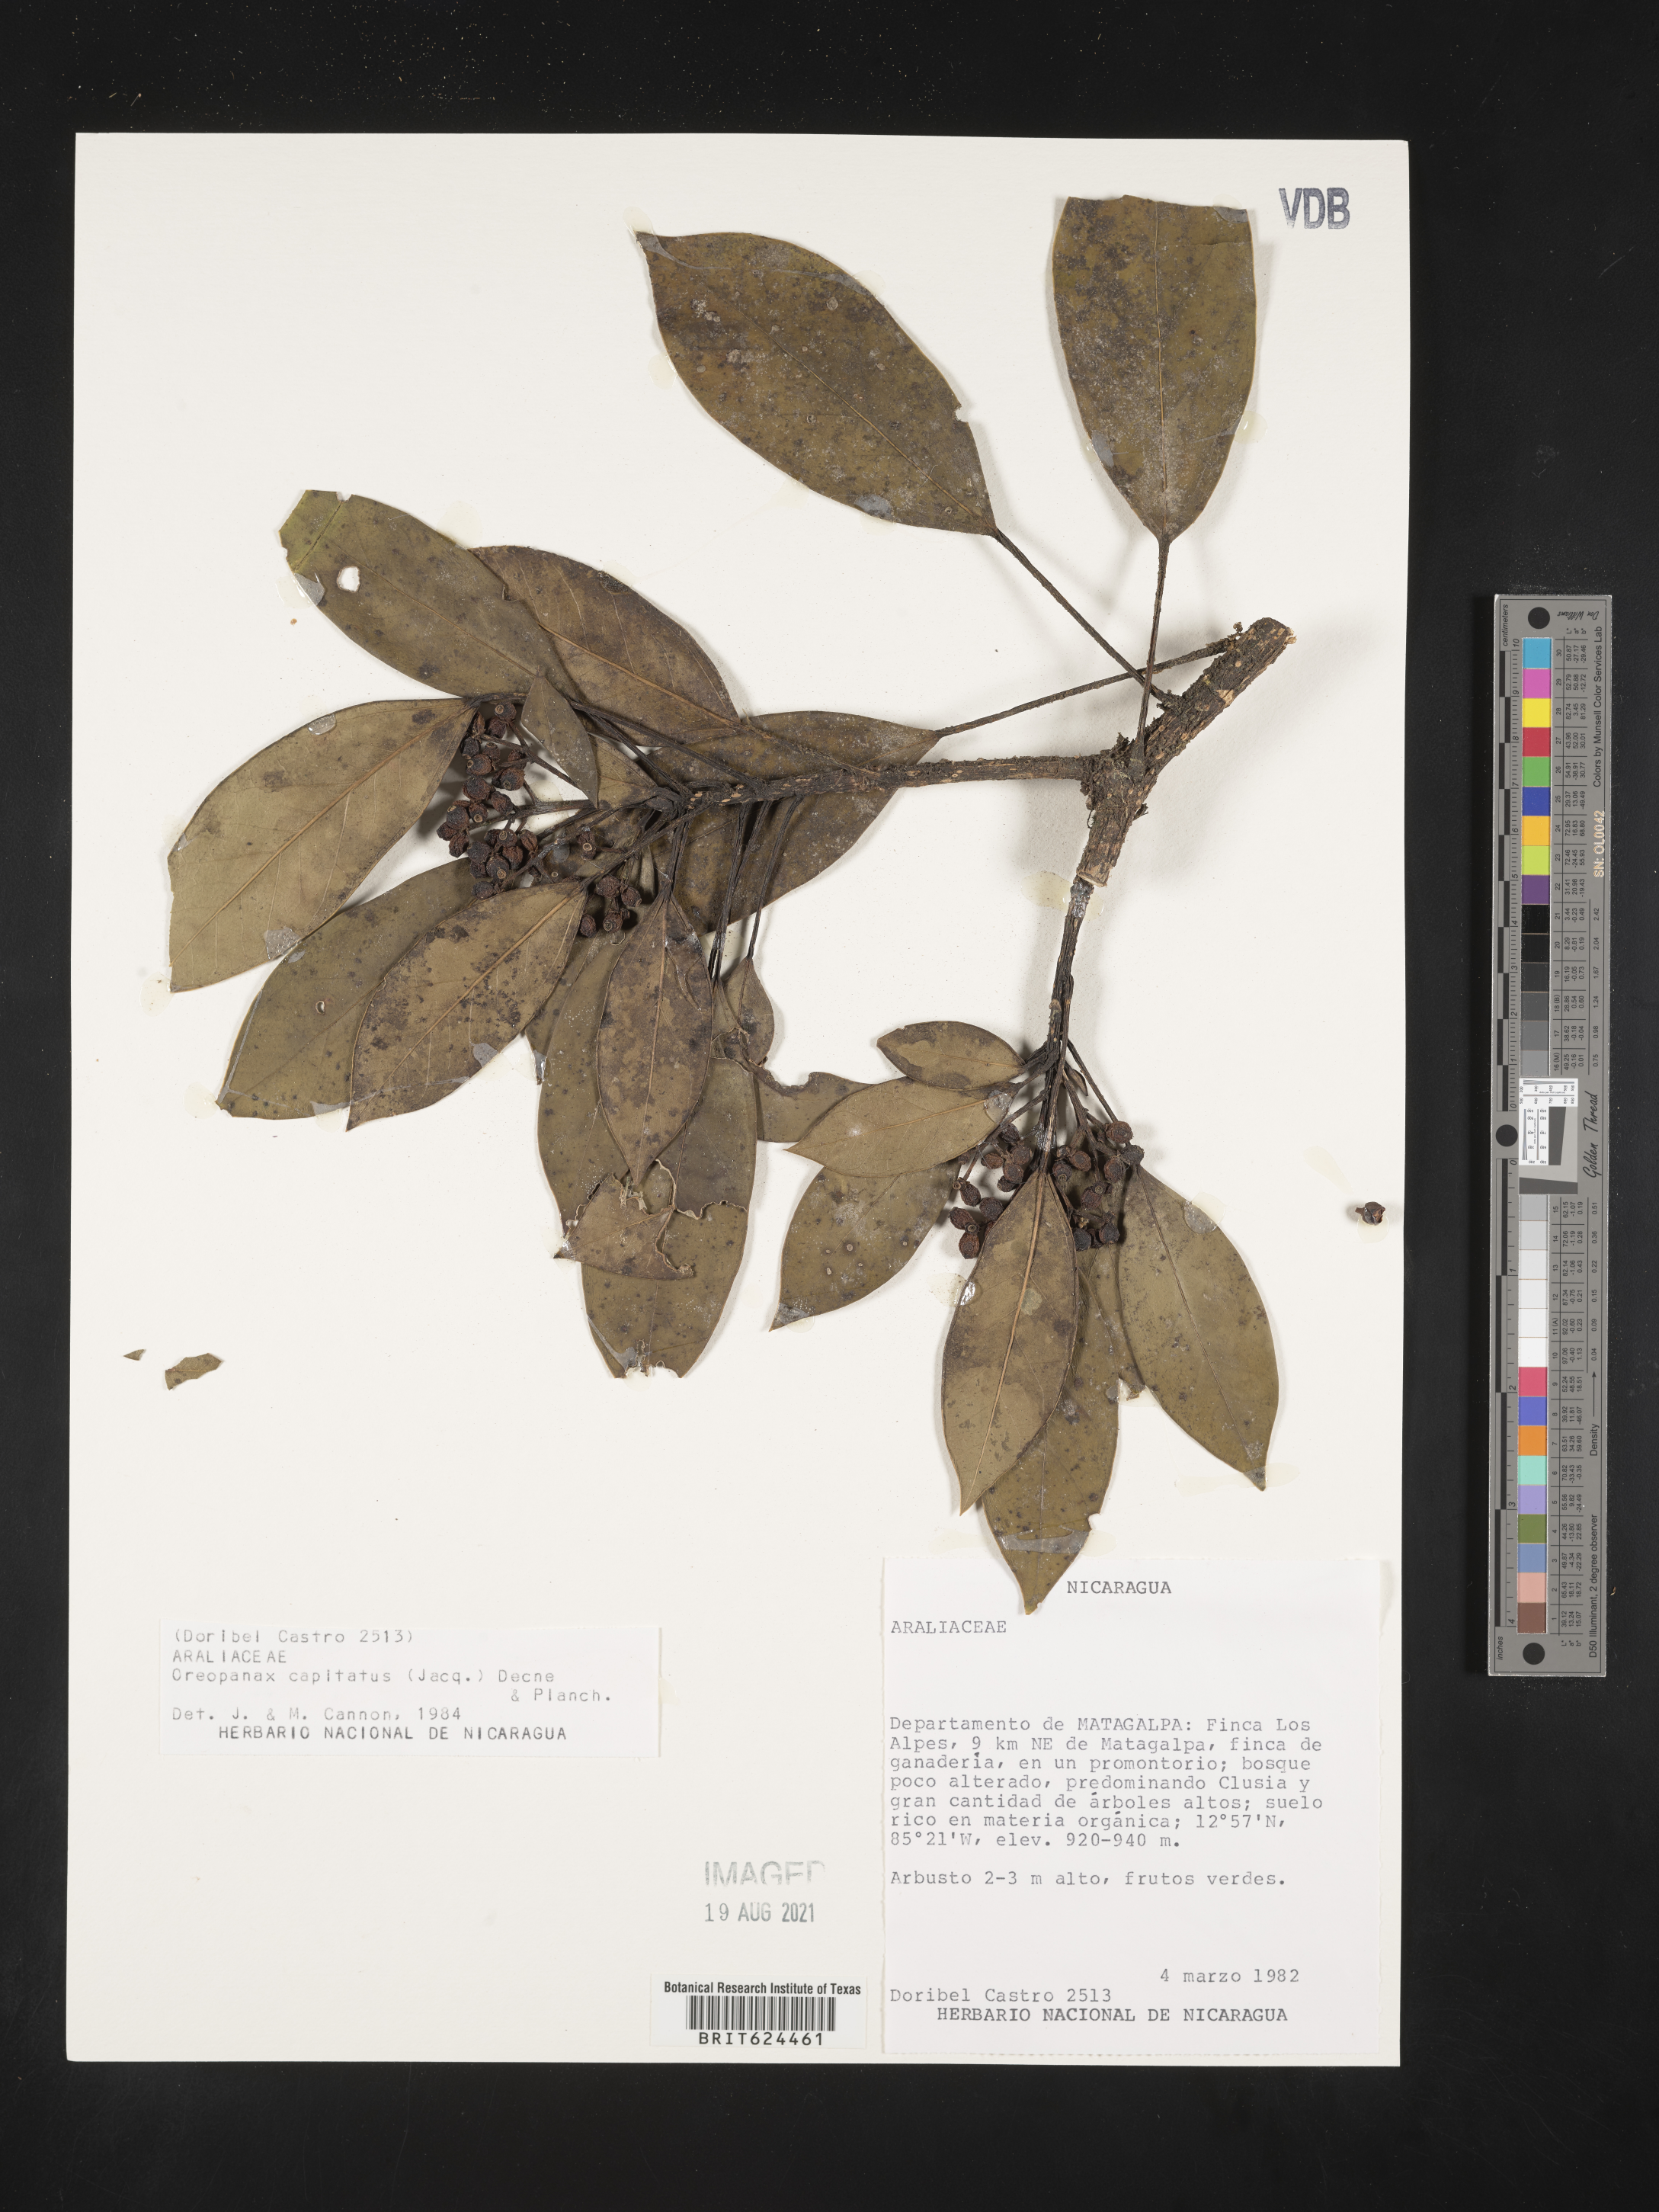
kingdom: Plantae
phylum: Tracheophyta
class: Magnoliopsida
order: Apiales
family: Araliaceae
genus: Oreopanax
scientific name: Oreopanax capitatus
